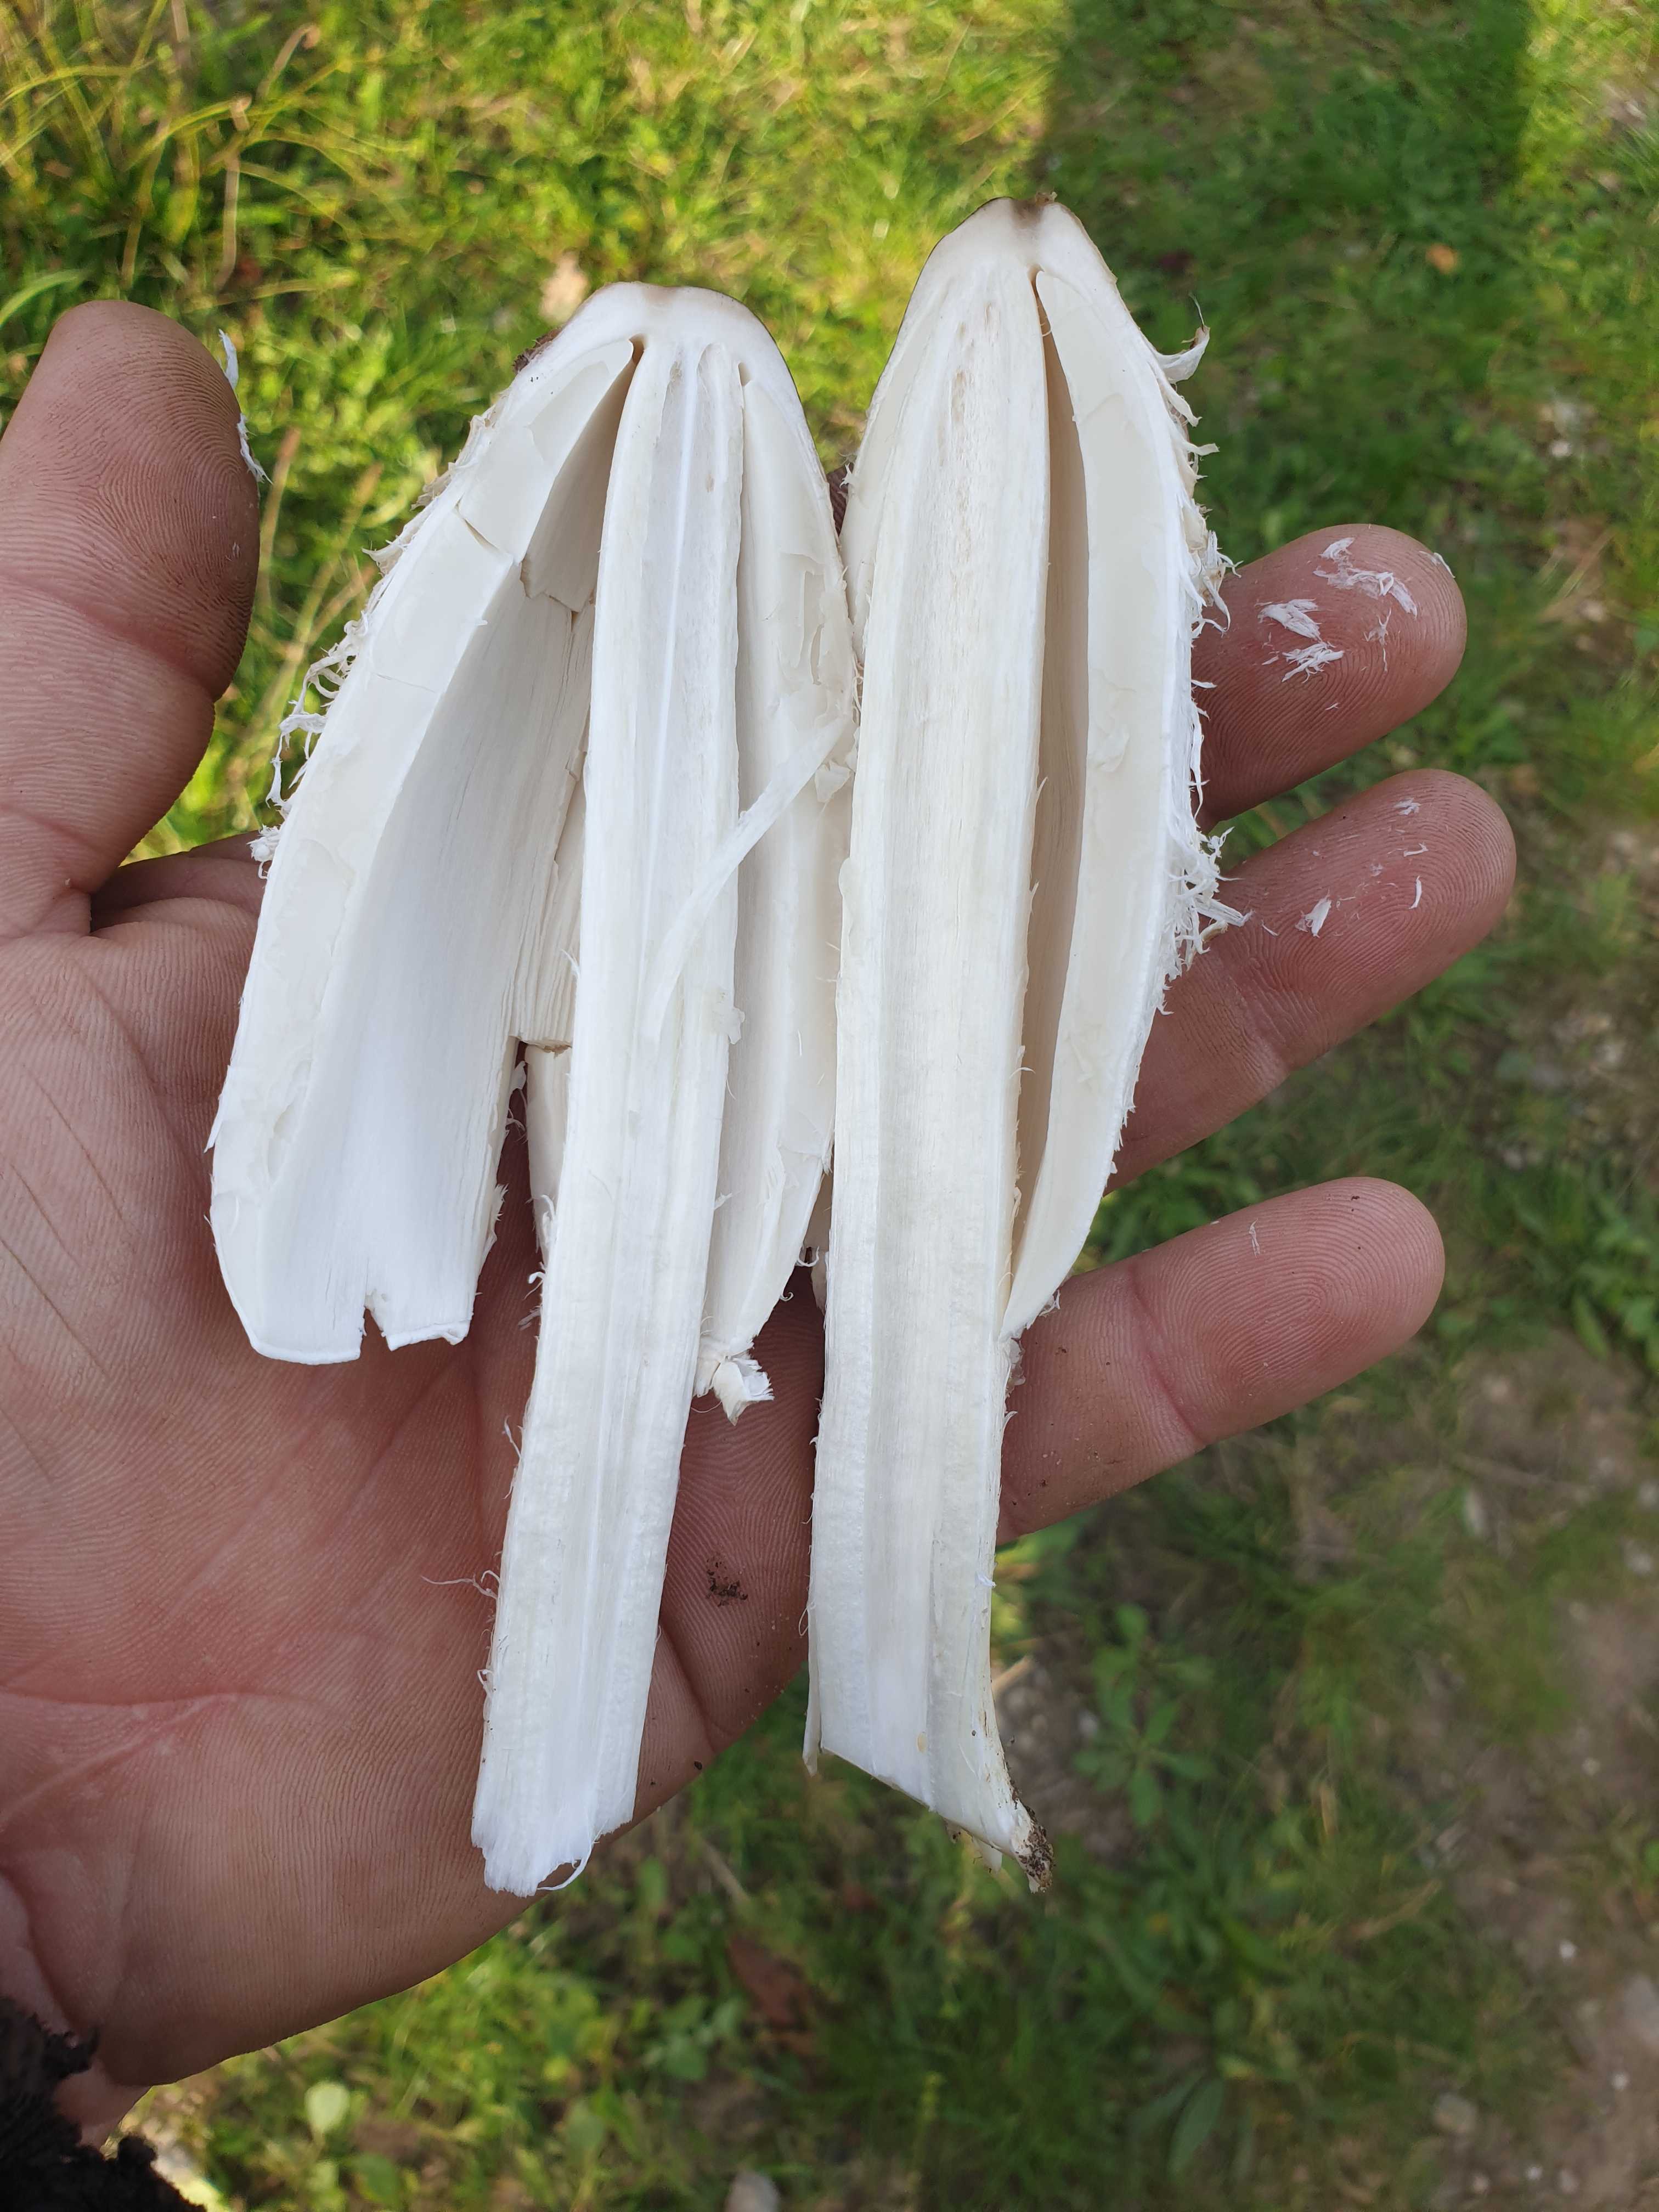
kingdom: Fungi
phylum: Basidiomycota
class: Agaricomycetes
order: Agaricales
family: Agaricaceae
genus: Coprinus
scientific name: Coprinus comatus
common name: stor parykhat
